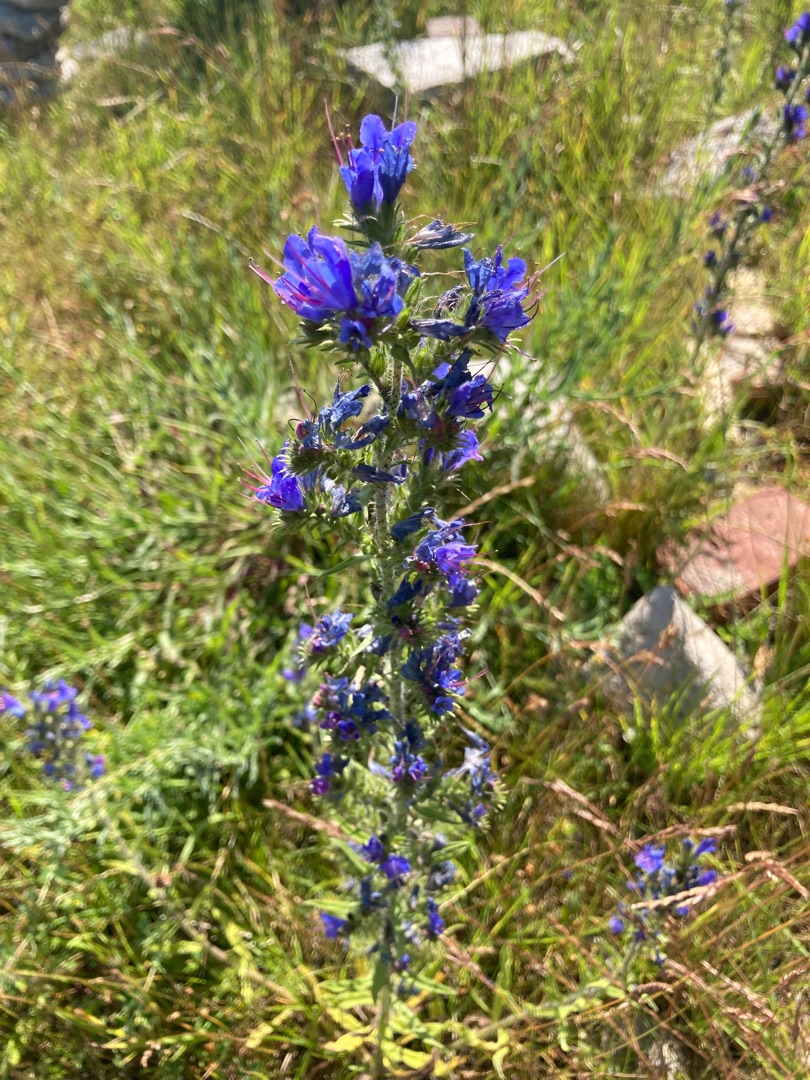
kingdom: Plantae
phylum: Tracheophyta
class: Magnoliopsida
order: Boraginales
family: Boraginaceae
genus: Echium
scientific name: Echium vulgare
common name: Slangehoved
